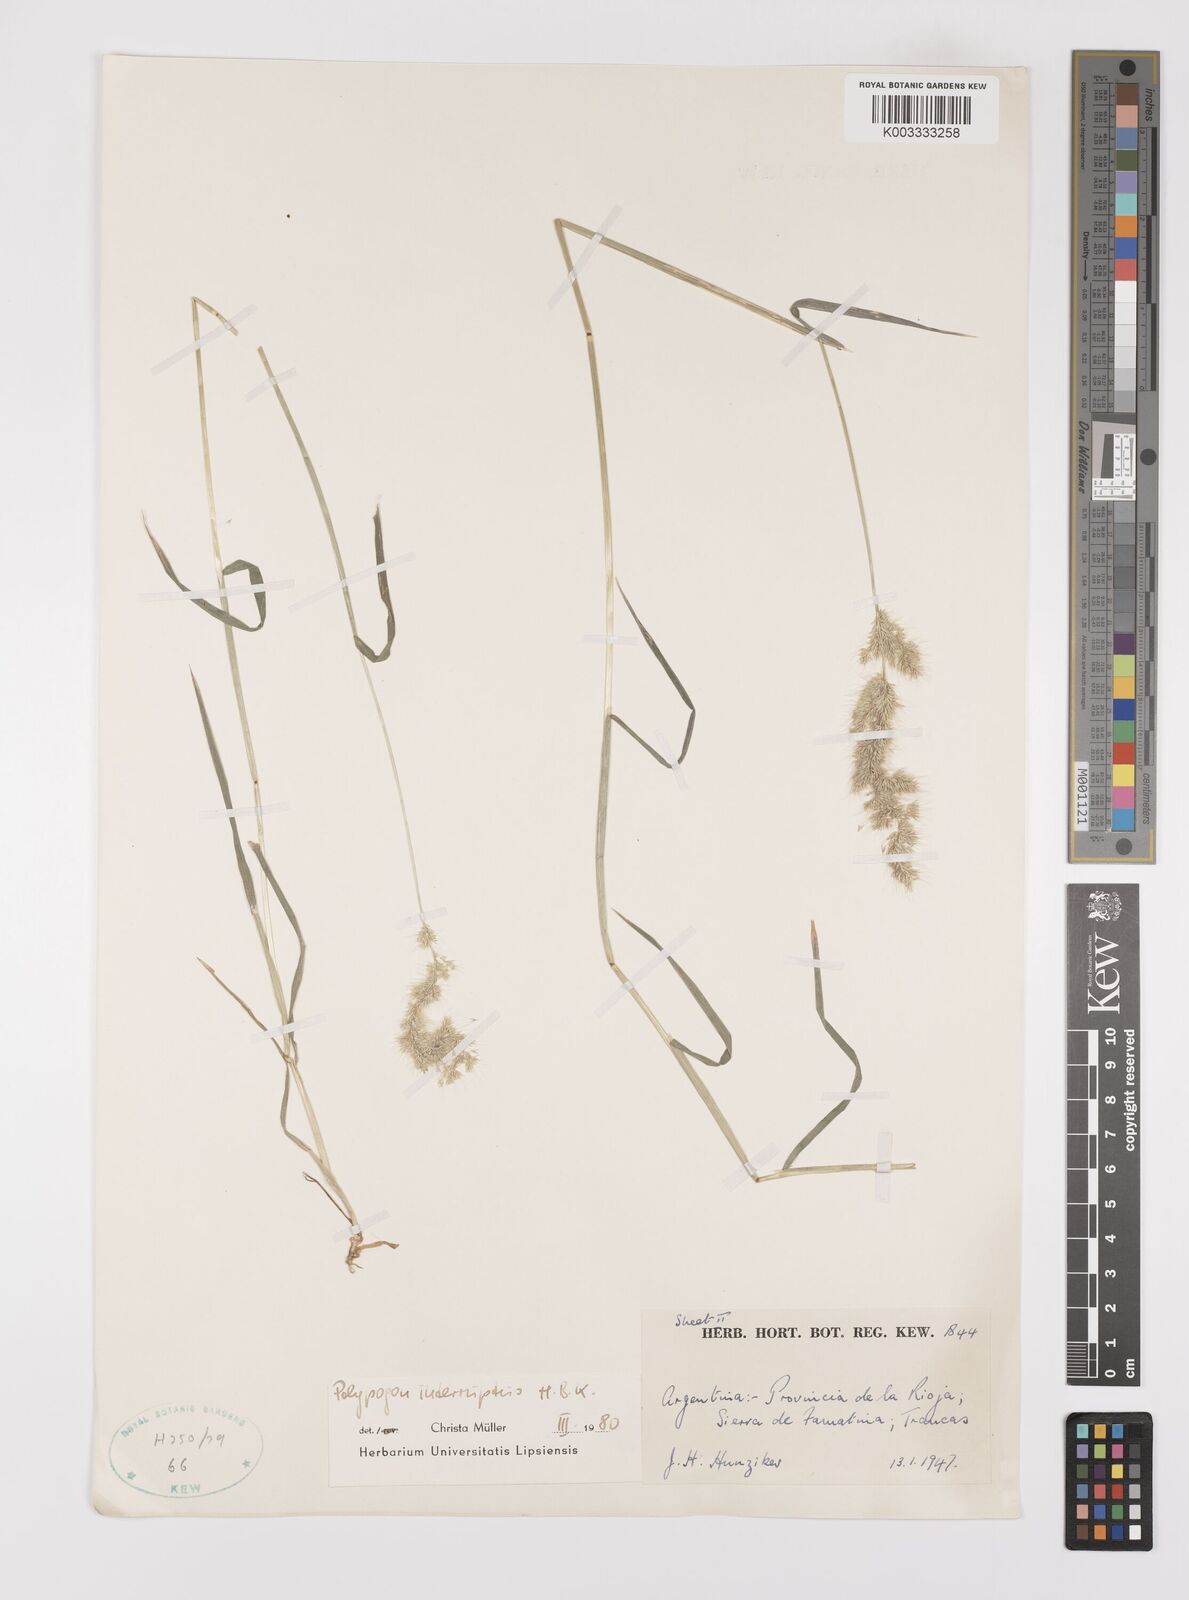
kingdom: Plantae
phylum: Tracheophyta
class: Liliopsida
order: Poales
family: Poaceae
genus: Polypogon
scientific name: Polypogon interruptus
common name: Ditch polypogon
